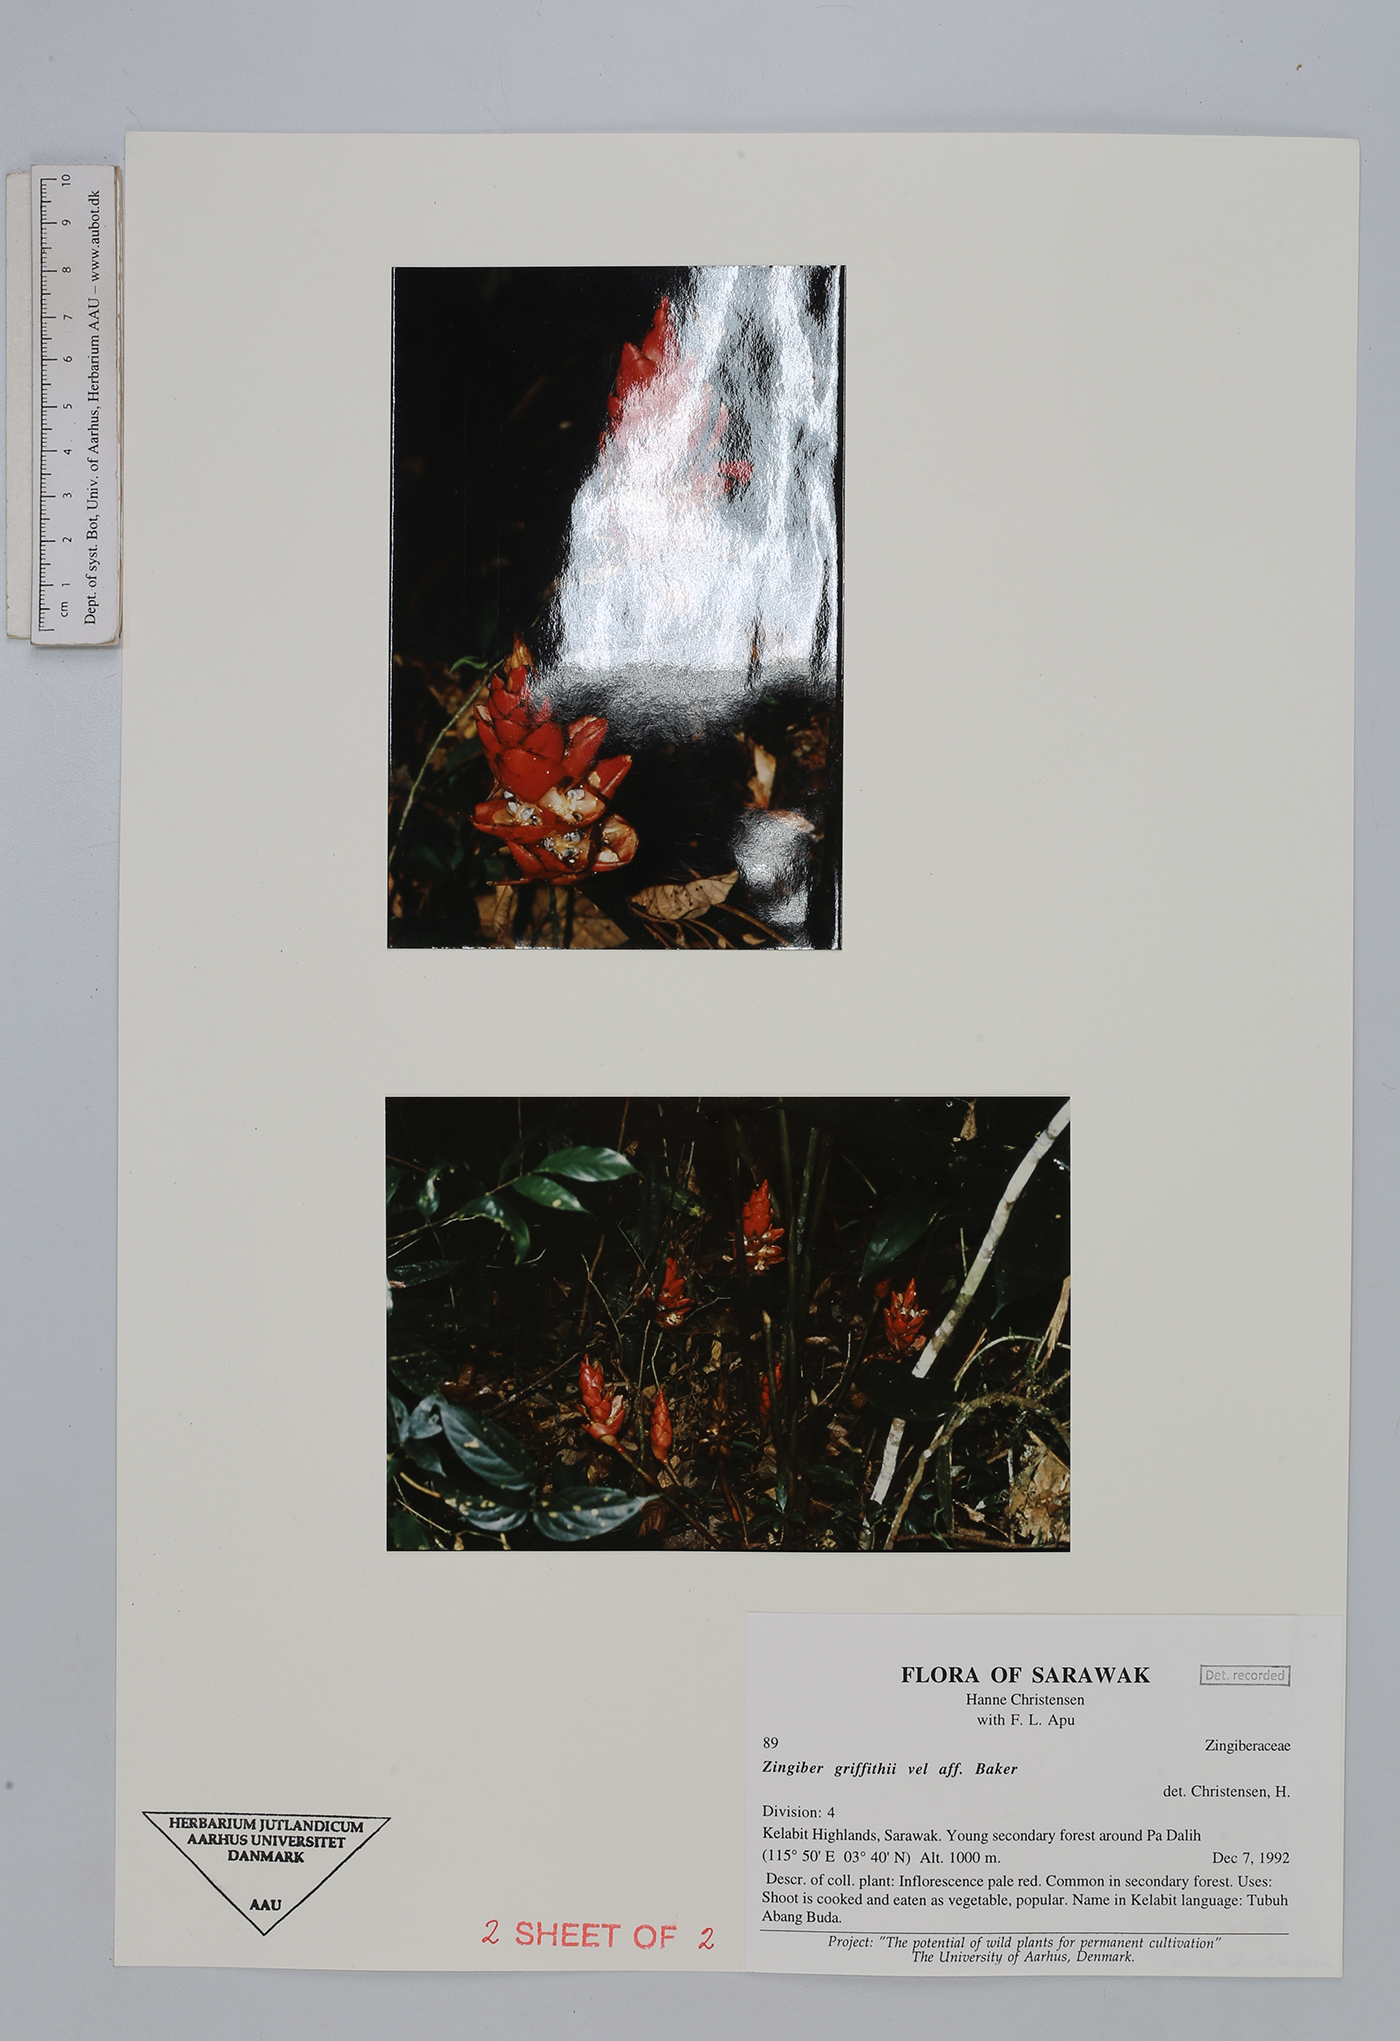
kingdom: Plantae
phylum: Tracheophyta
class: Liliopsida
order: Zingiberales
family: Zingiberaceae
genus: Zingiber
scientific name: Zingiber griffithii
